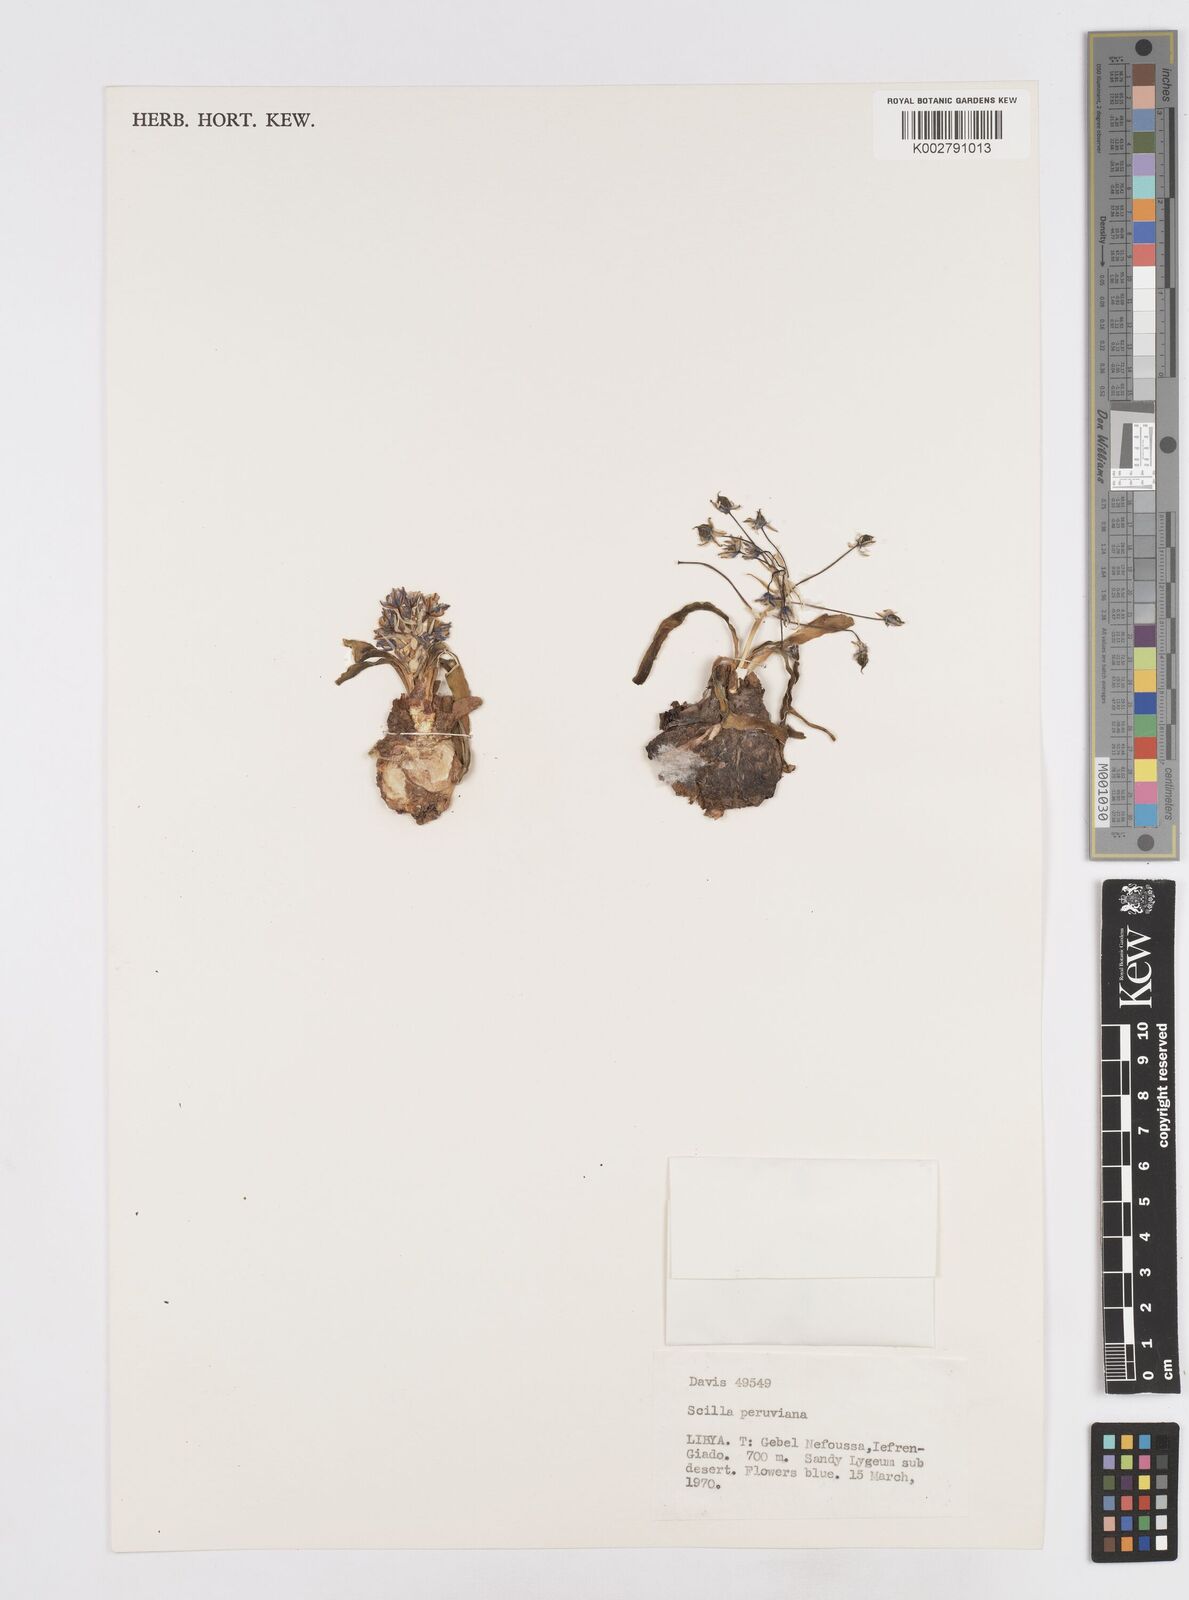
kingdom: Plantae
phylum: Tracheophyta
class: Liliopsida
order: Asparagales
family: Asparagaceae
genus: Scilla
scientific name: Scilla peruviana
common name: Portuguese squill
